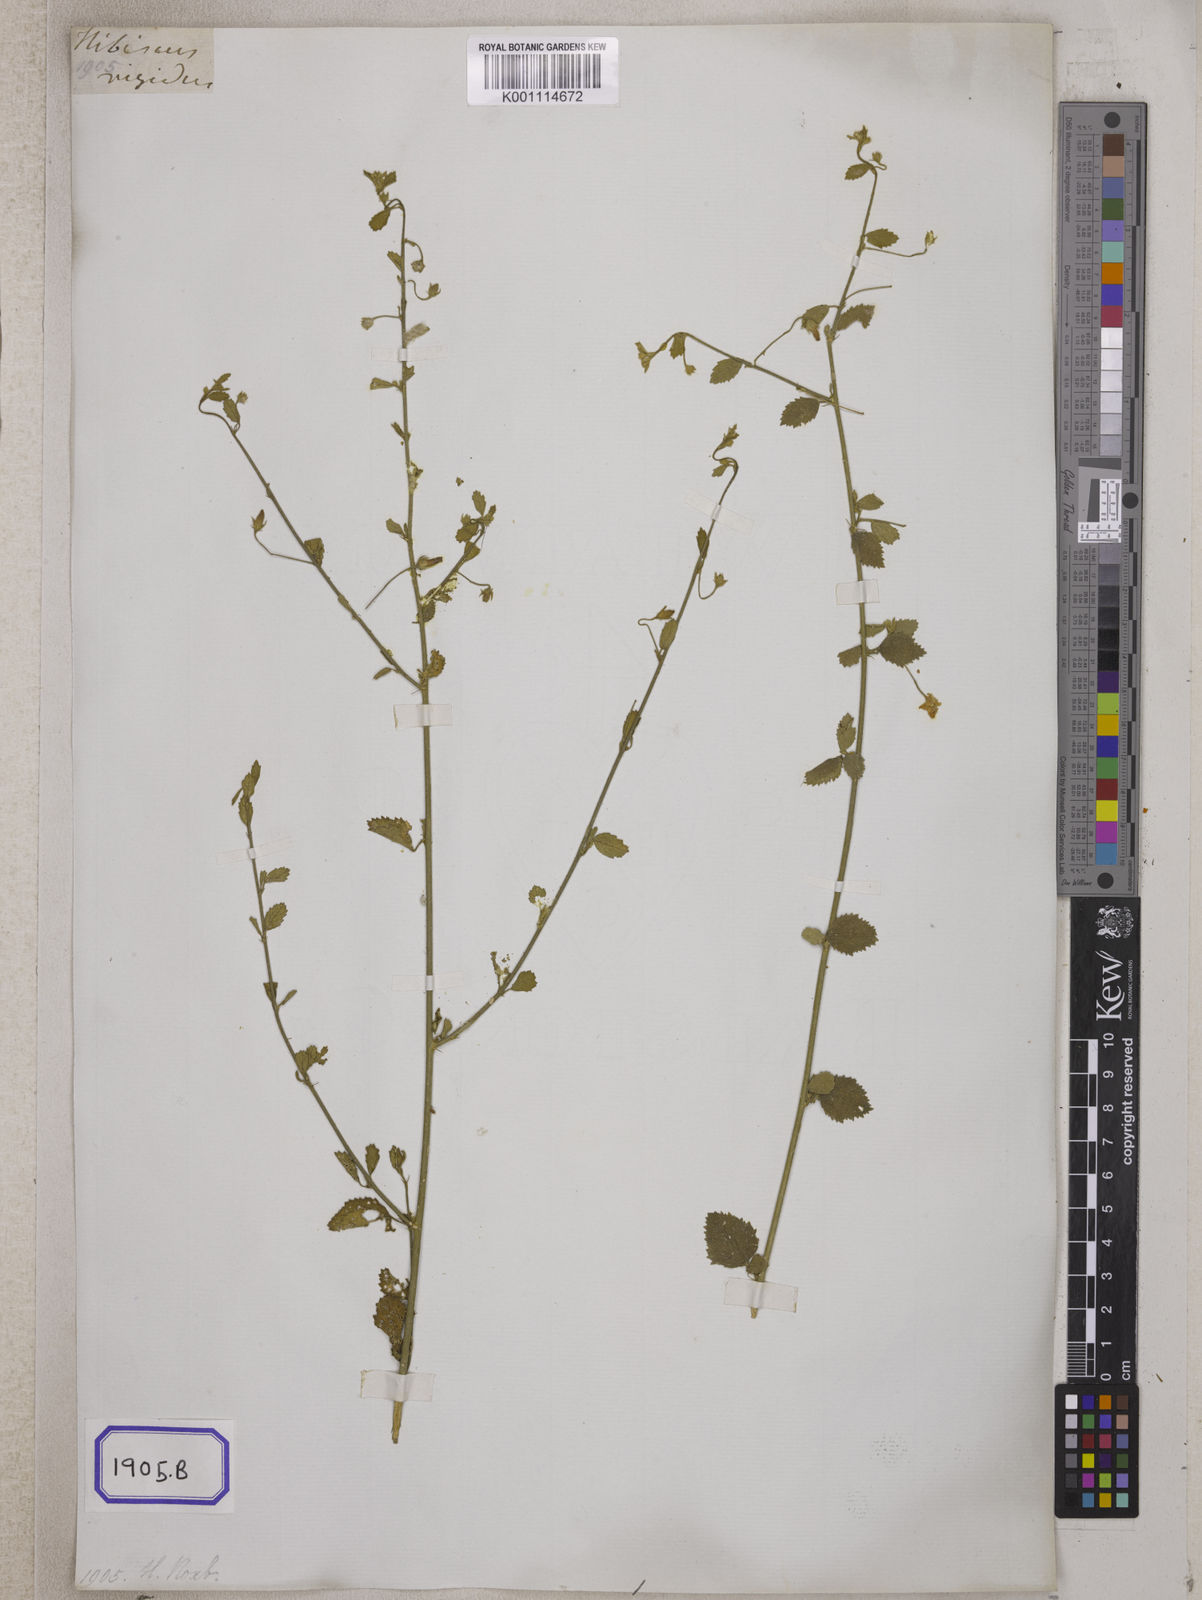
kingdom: Plantae
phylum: Tracheophyta
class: Magnoliopsida
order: Malvales
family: Malvaceae
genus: Hibiscus
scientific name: Hibiscus micranthus
